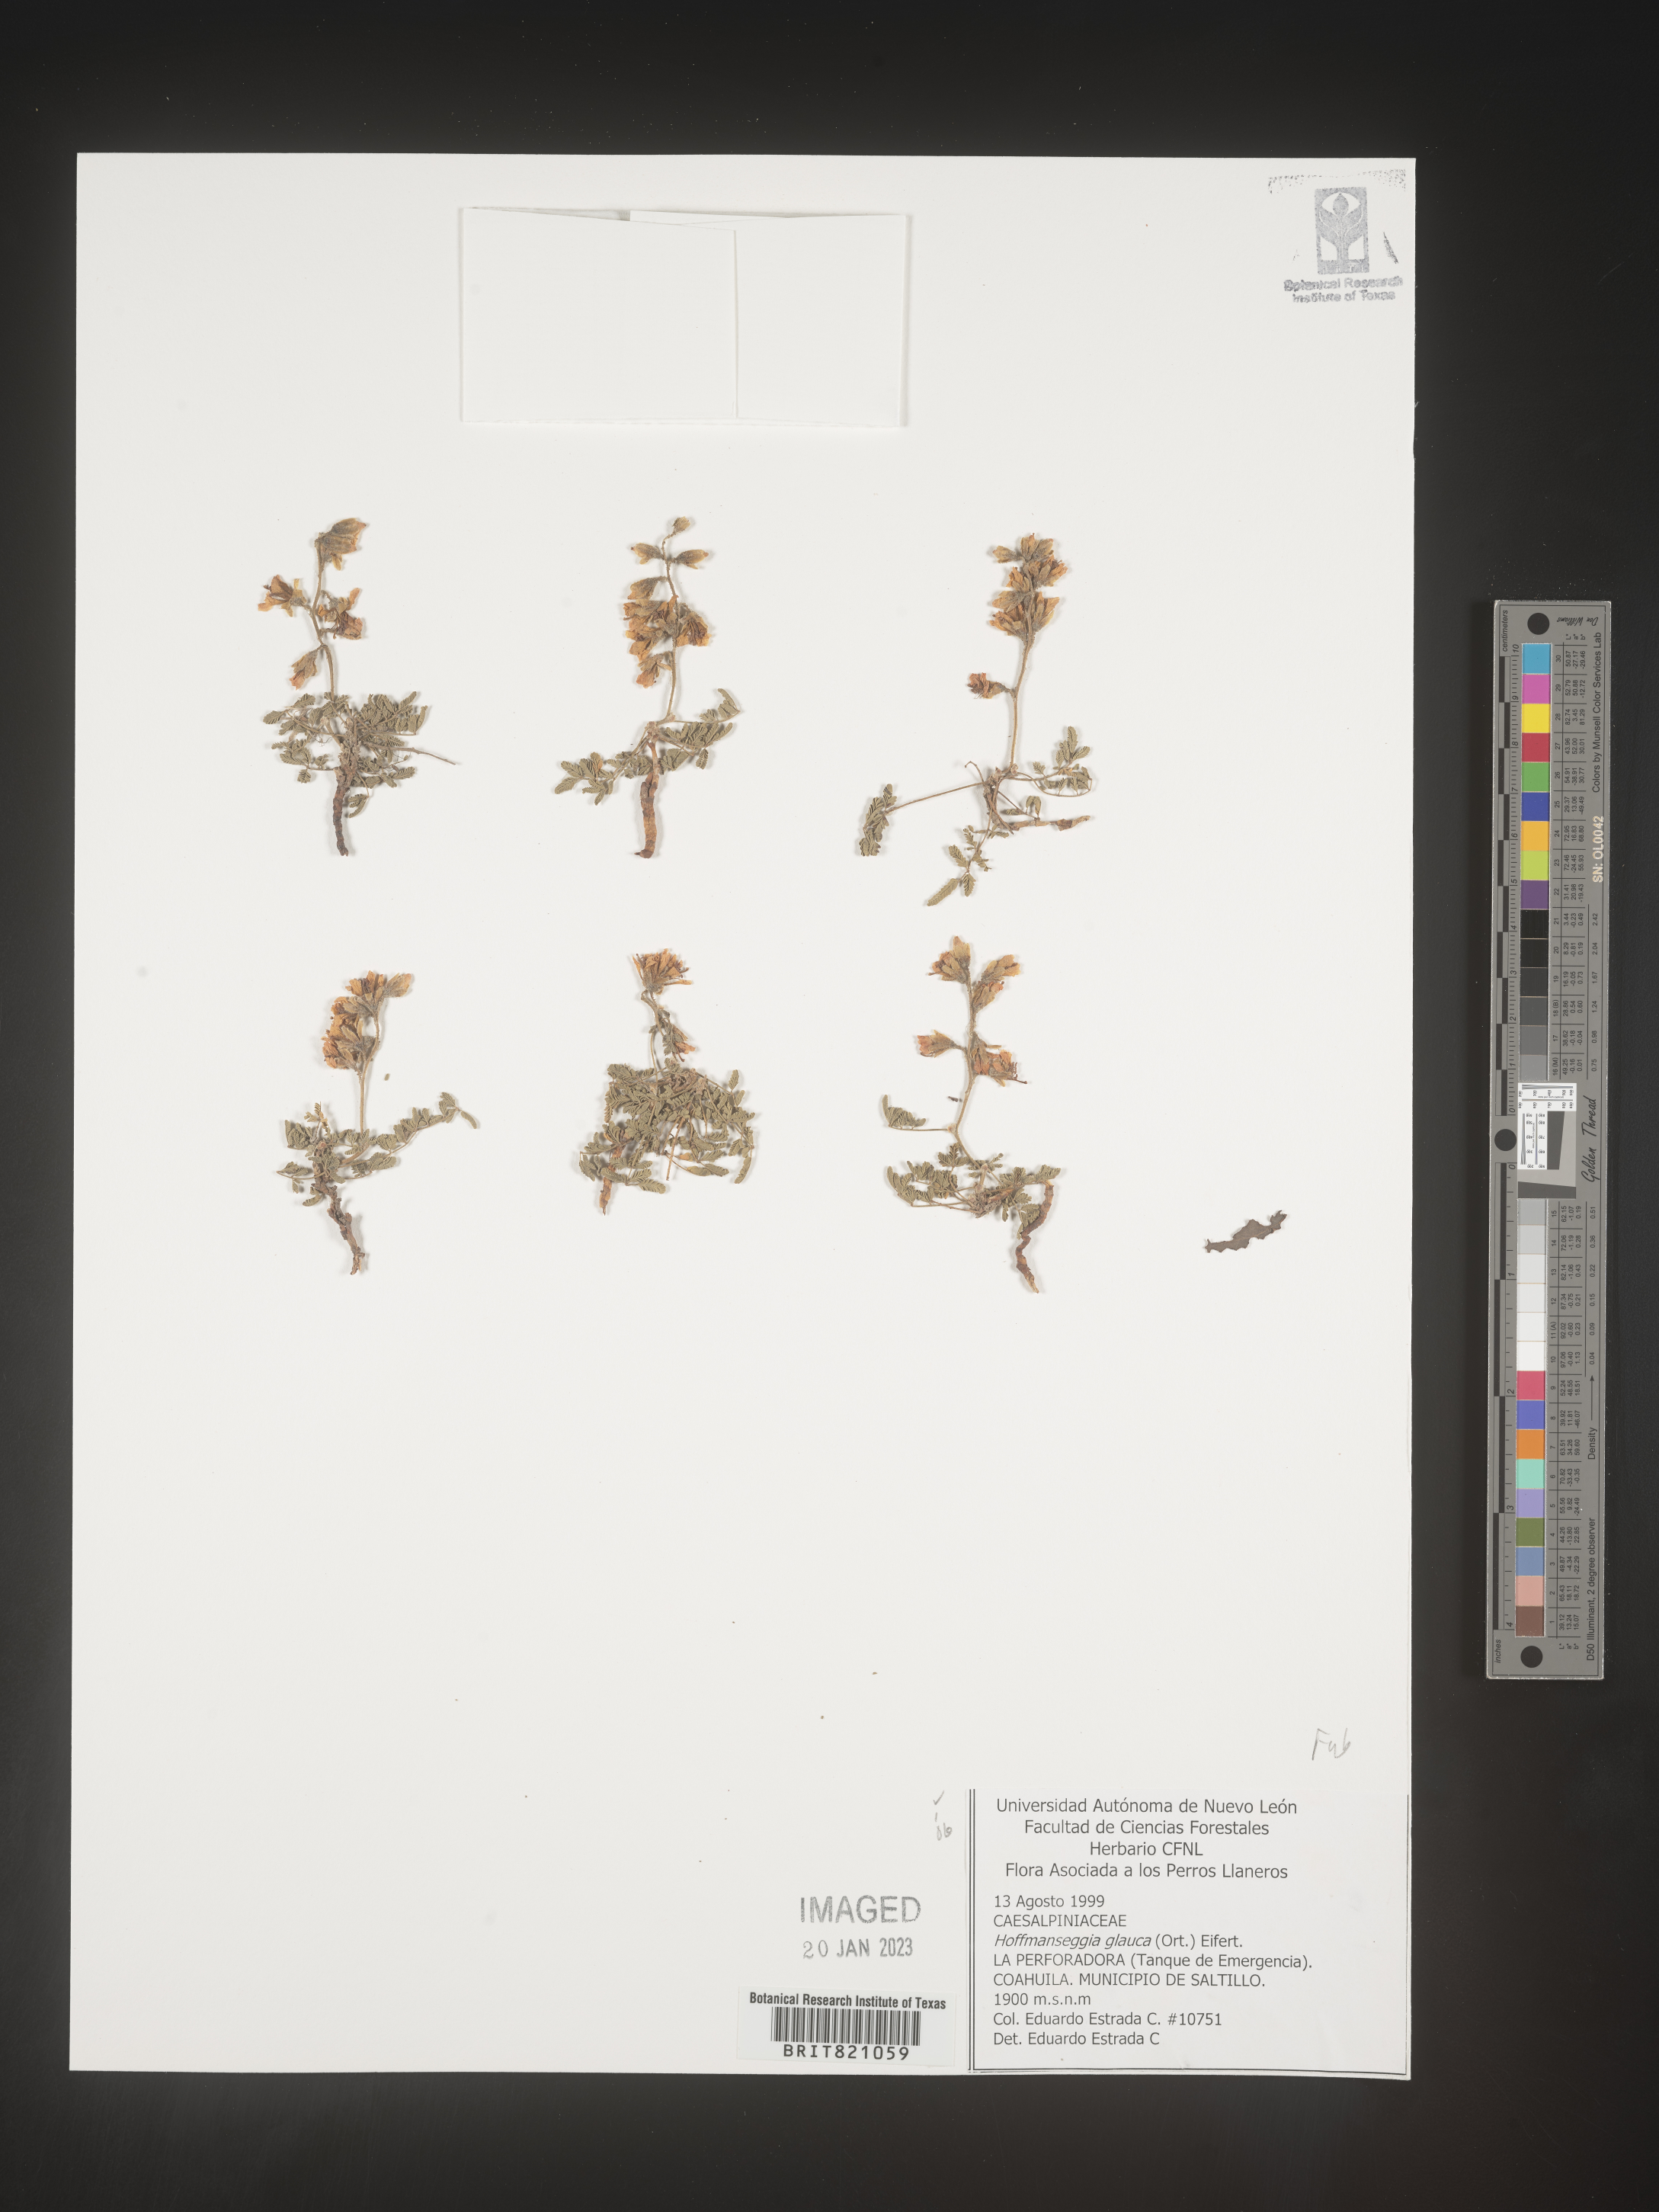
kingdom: Plantae
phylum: Tracheophyta
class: Magnoliopsida
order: Fabales
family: Fabaceae
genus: Hoffmannseggia
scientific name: Hoffmannseggia
